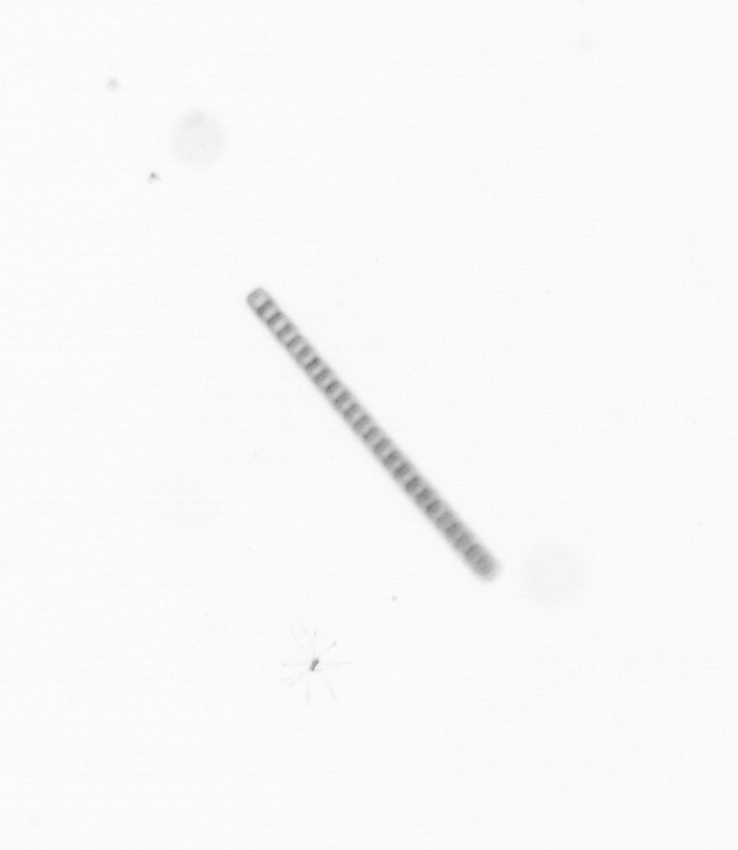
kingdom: Chromista
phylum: Ochrophyta
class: Bacillariophyceae
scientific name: Bacillariophyceae
